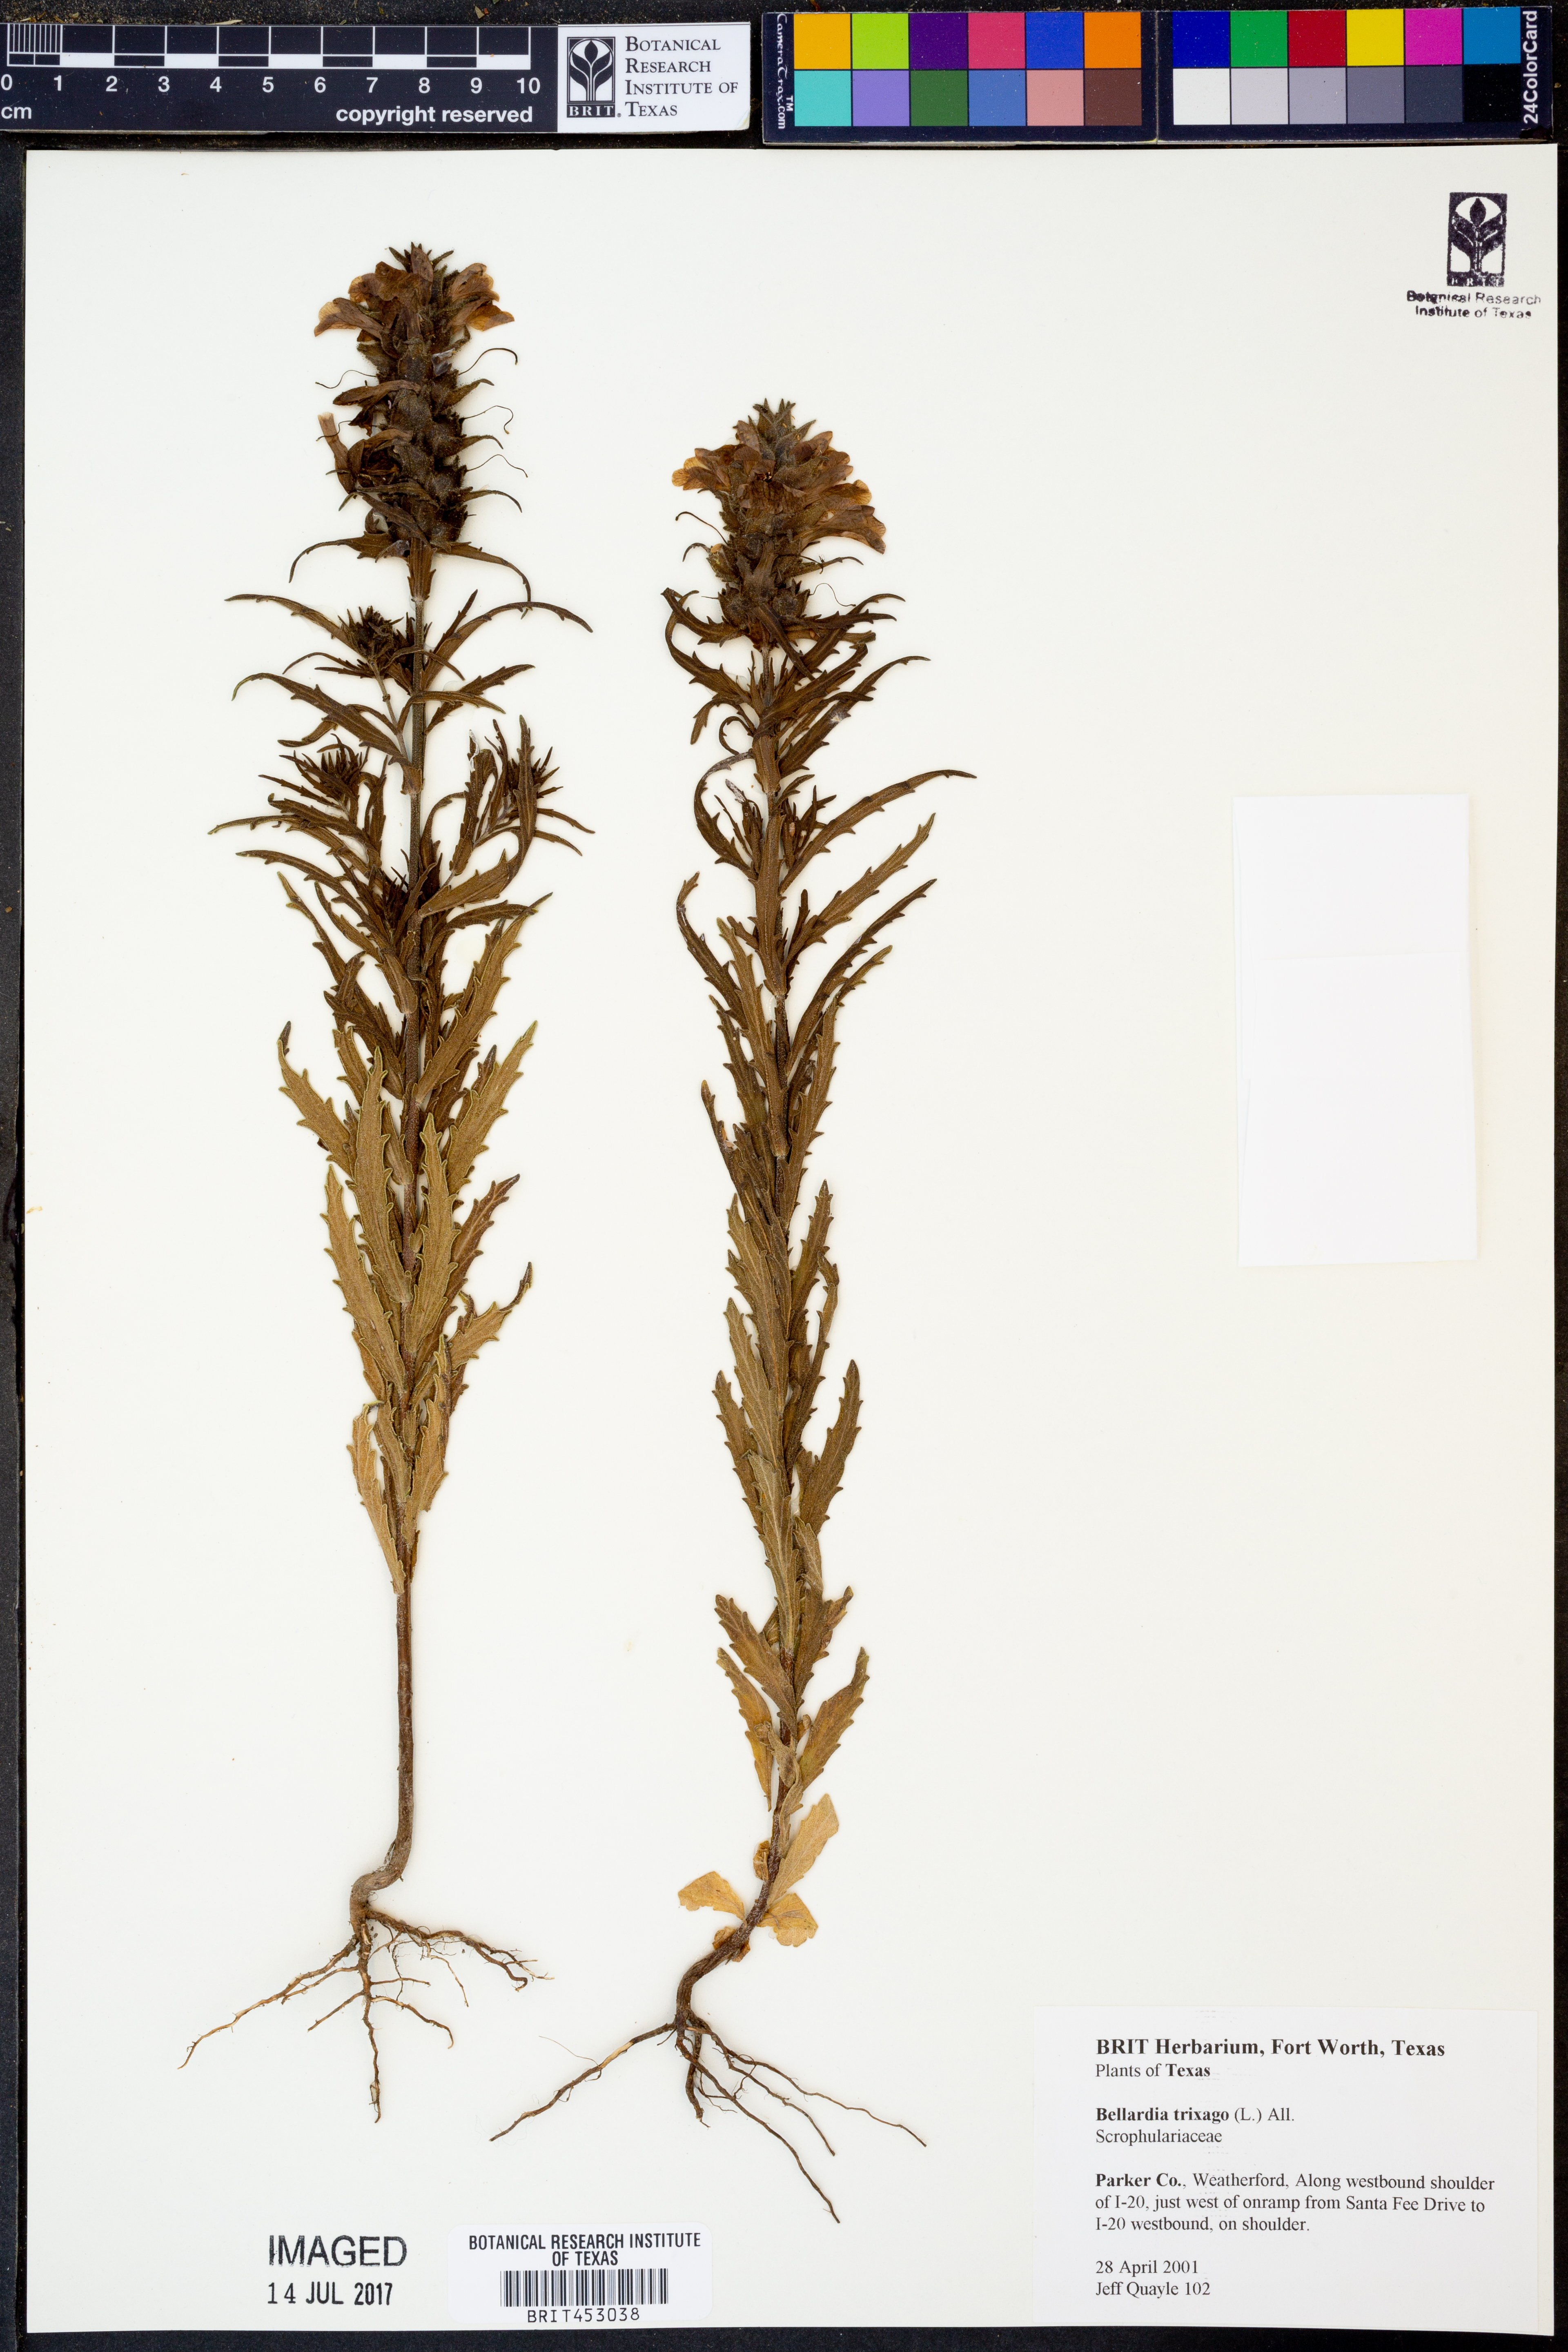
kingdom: Plantae
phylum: Tracheophyta
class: Magnoliopsida
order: Lamiales
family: Orobanchaceae
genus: Bellardia
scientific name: Bellardia trixago
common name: Mediterranean lineseed
